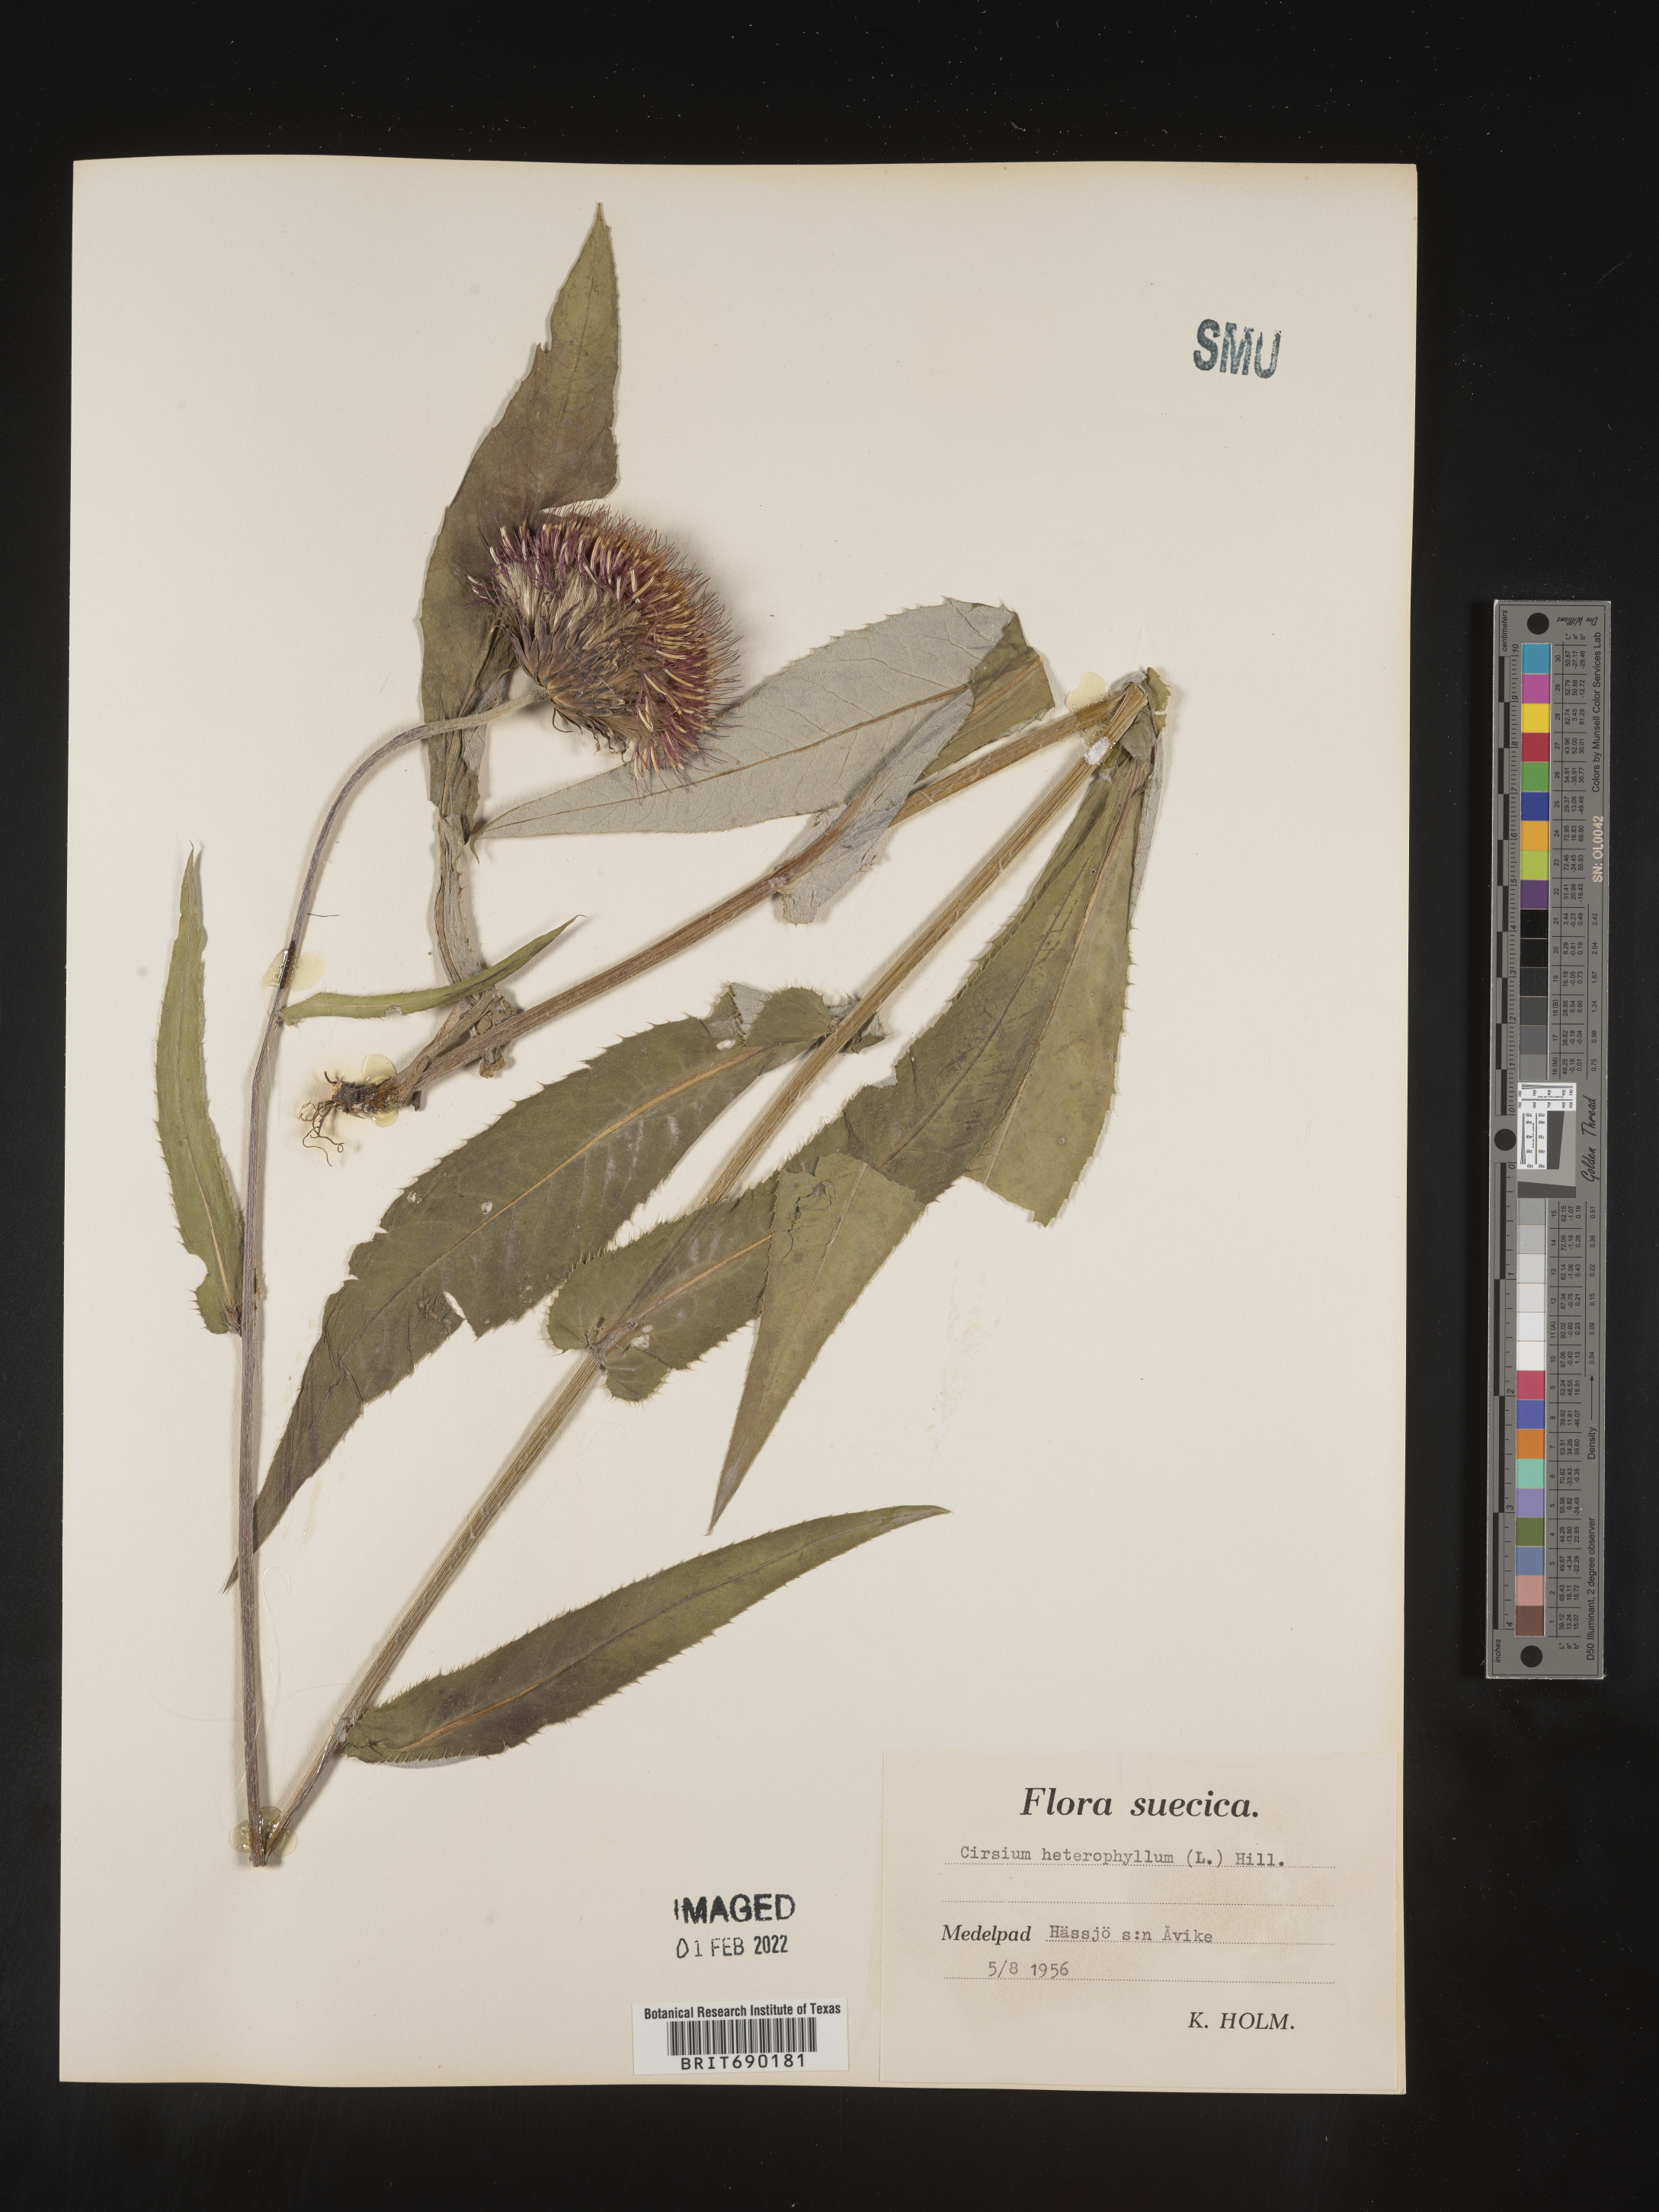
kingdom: Plantae
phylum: Tracheophyta
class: Magnoliopsida
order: Asterales
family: Asteraceae
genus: Cirsium
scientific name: Cirsium
